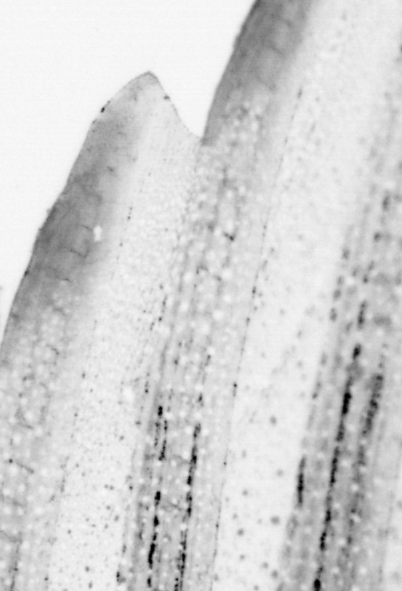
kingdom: Animalia
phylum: Chordata
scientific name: Chordata
